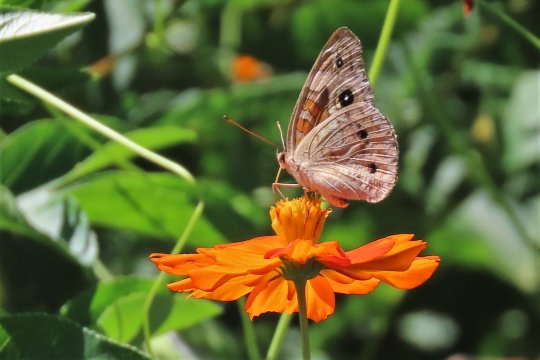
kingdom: Animalia
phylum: Arthropoda
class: Insecta
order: Lepidoptera
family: Nymphalidae
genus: Junonia
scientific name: Junonia coenia
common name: Common Buckeye
